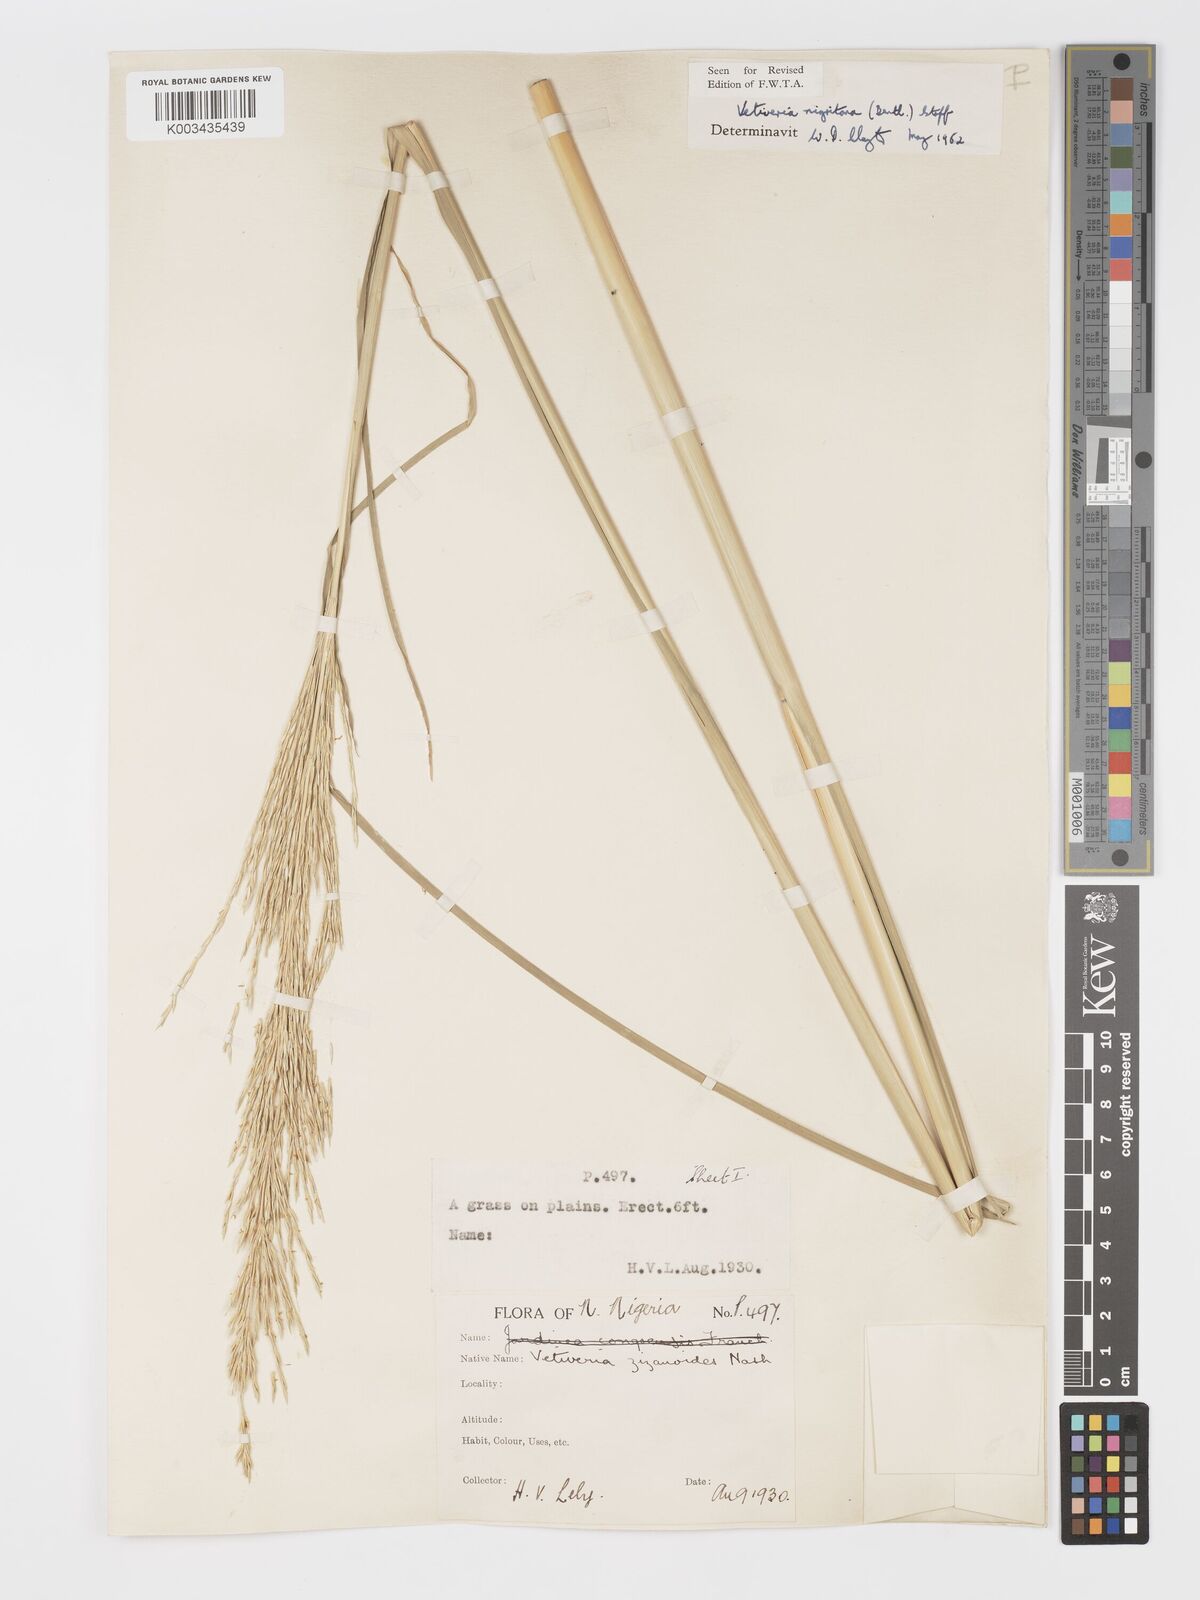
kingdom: Plantae
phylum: Tracheophyta
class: Liliopsida
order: Poales
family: Poaceae
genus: Chrysopogon
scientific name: Chrysopogon nigritanus
